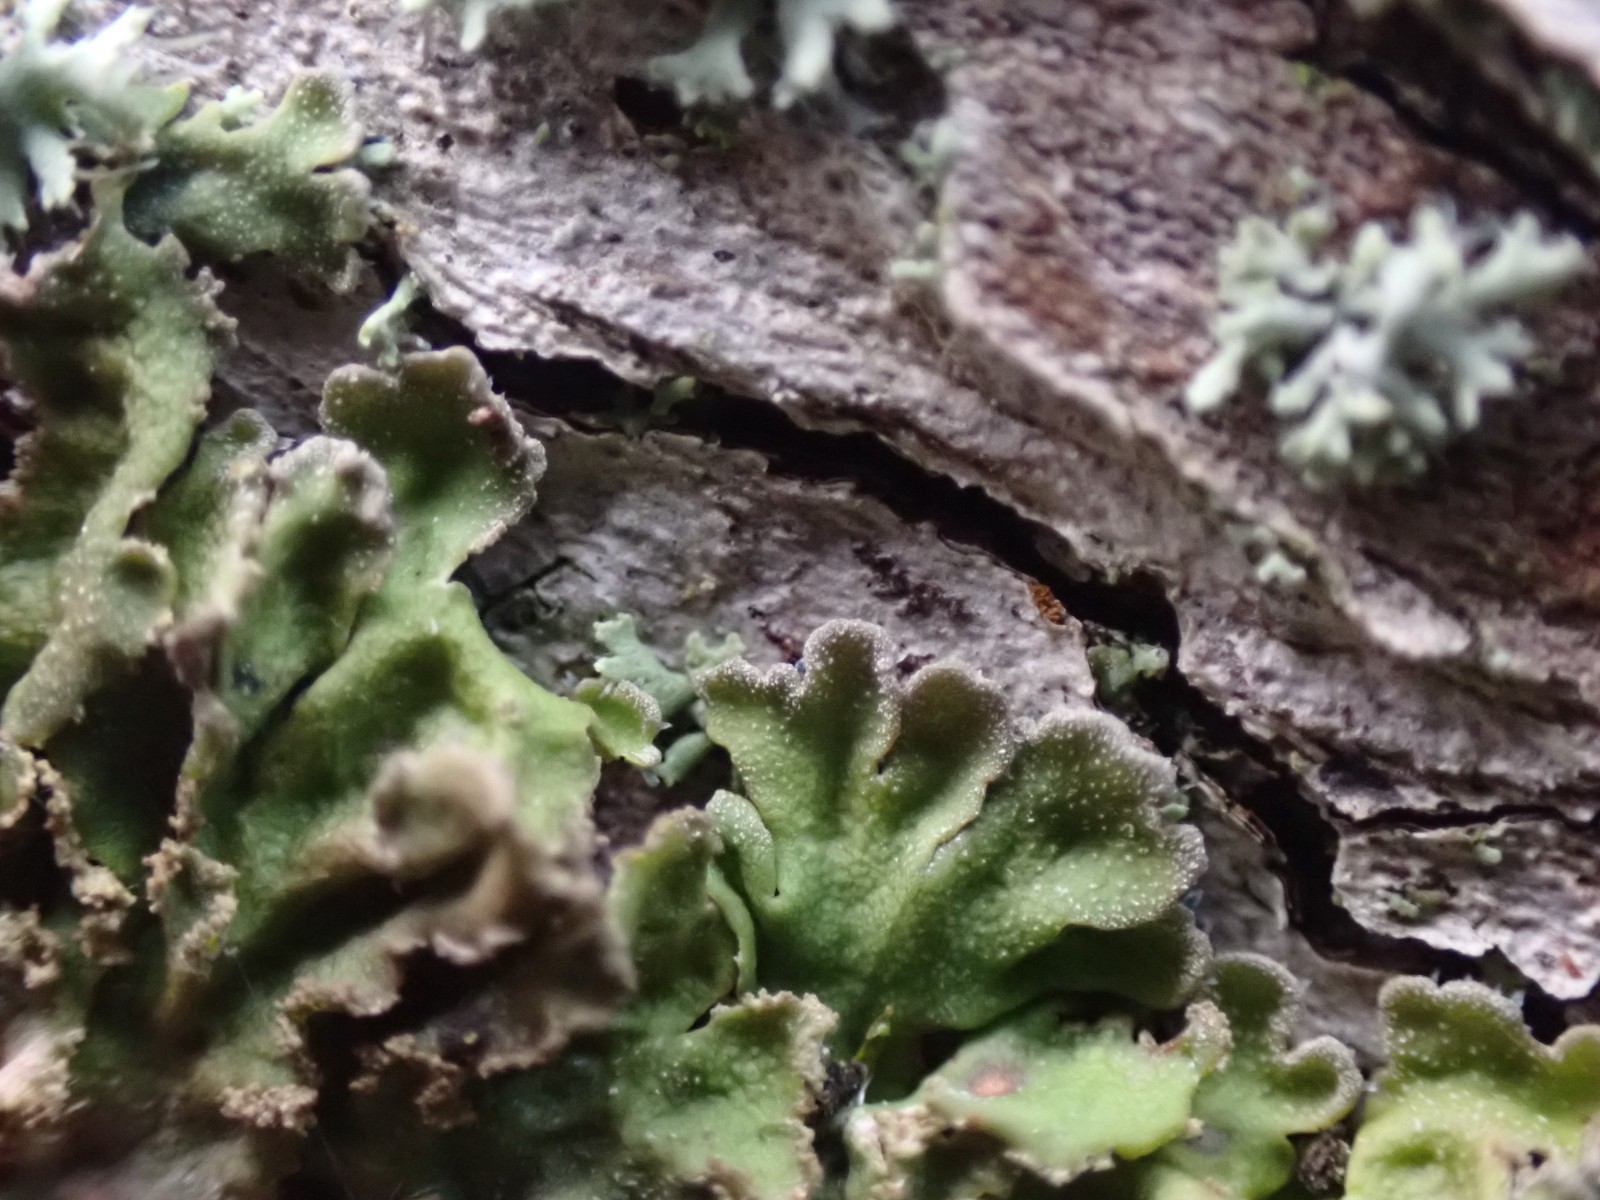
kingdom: Fungi
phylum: Ascomycota
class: Lecanoromycetes
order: Caliciales
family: Physciaceae
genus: Physconia
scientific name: Physconia
